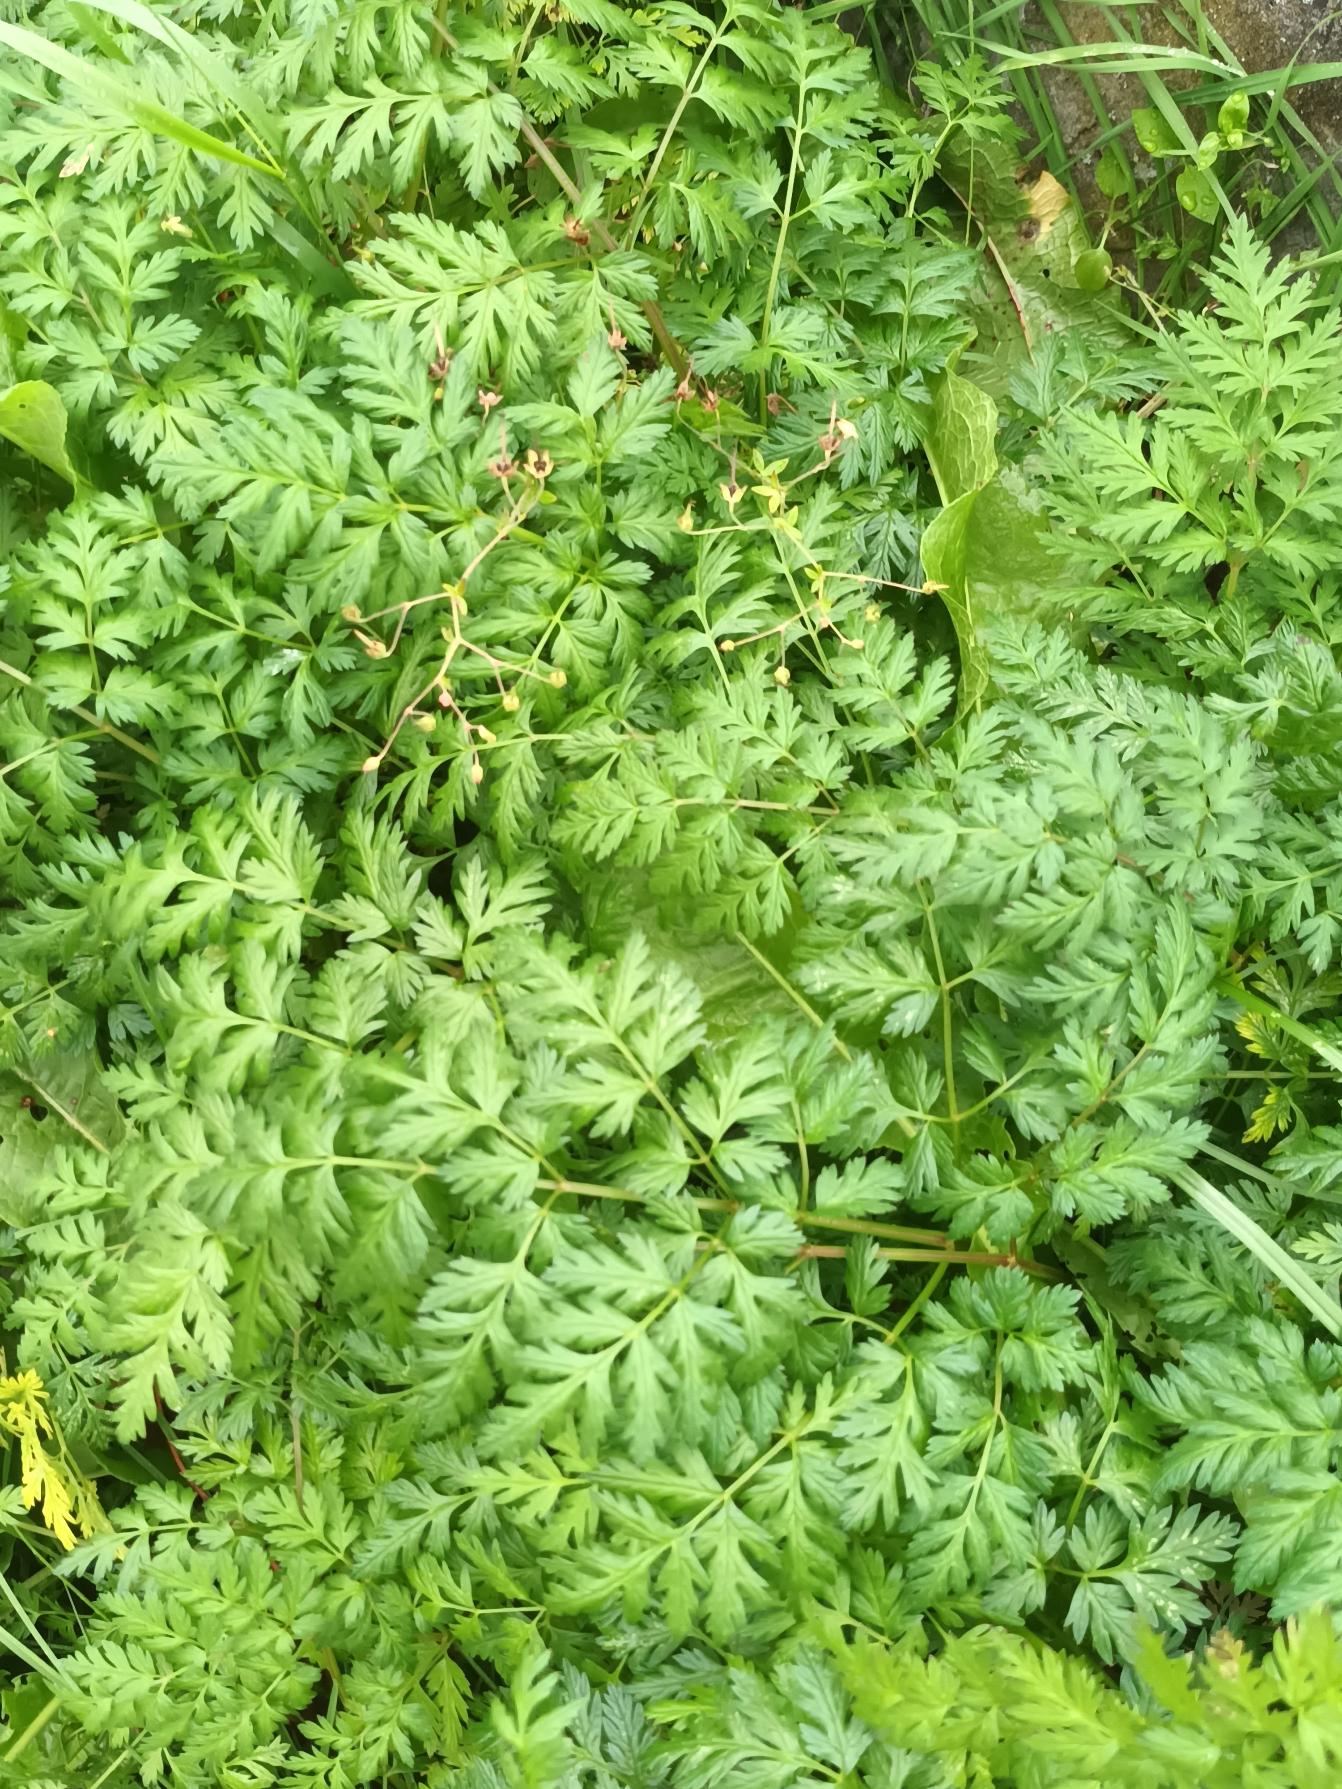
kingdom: Plantae
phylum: Tracheophyta
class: Magnoliopsida
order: Apiales
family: Apiaceae
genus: Anthriscus
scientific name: Anthriscus sylvestris
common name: Vild kørvel
